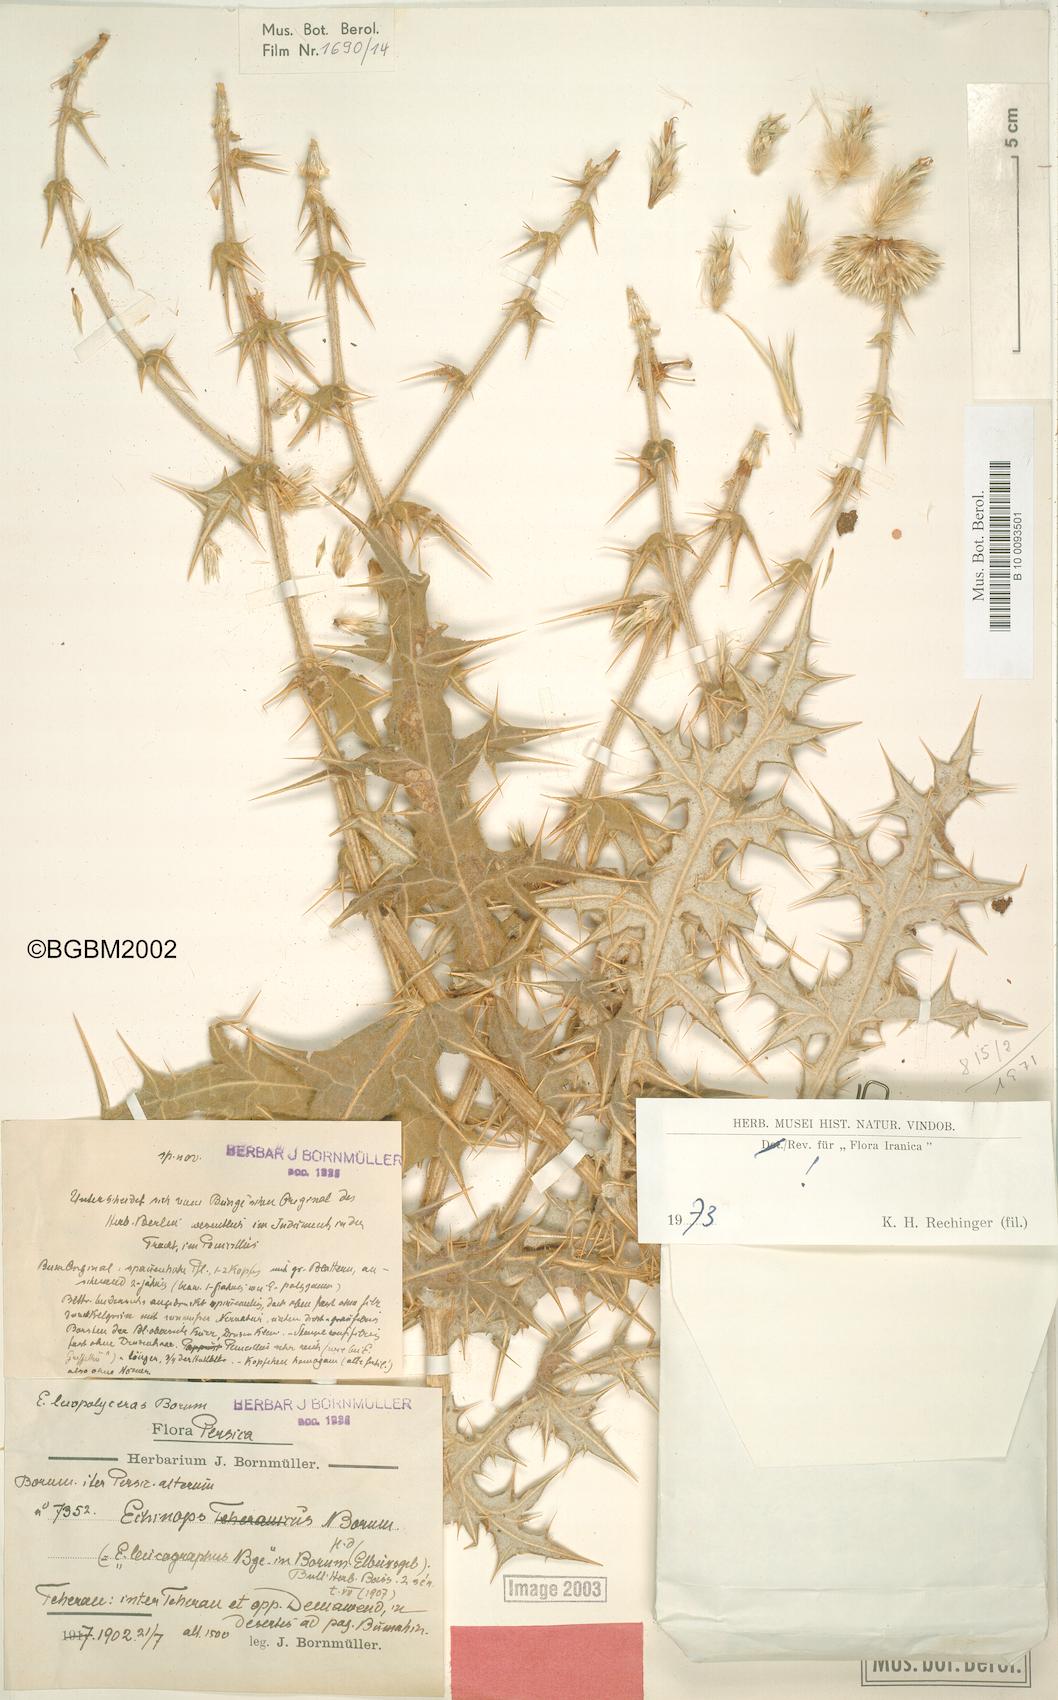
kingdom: Plantae
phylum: Tracheophyta
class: Magnoliopsida
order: Asterales
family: Asteraceae
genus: Echinops
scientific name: Echinops leiopolyceras
